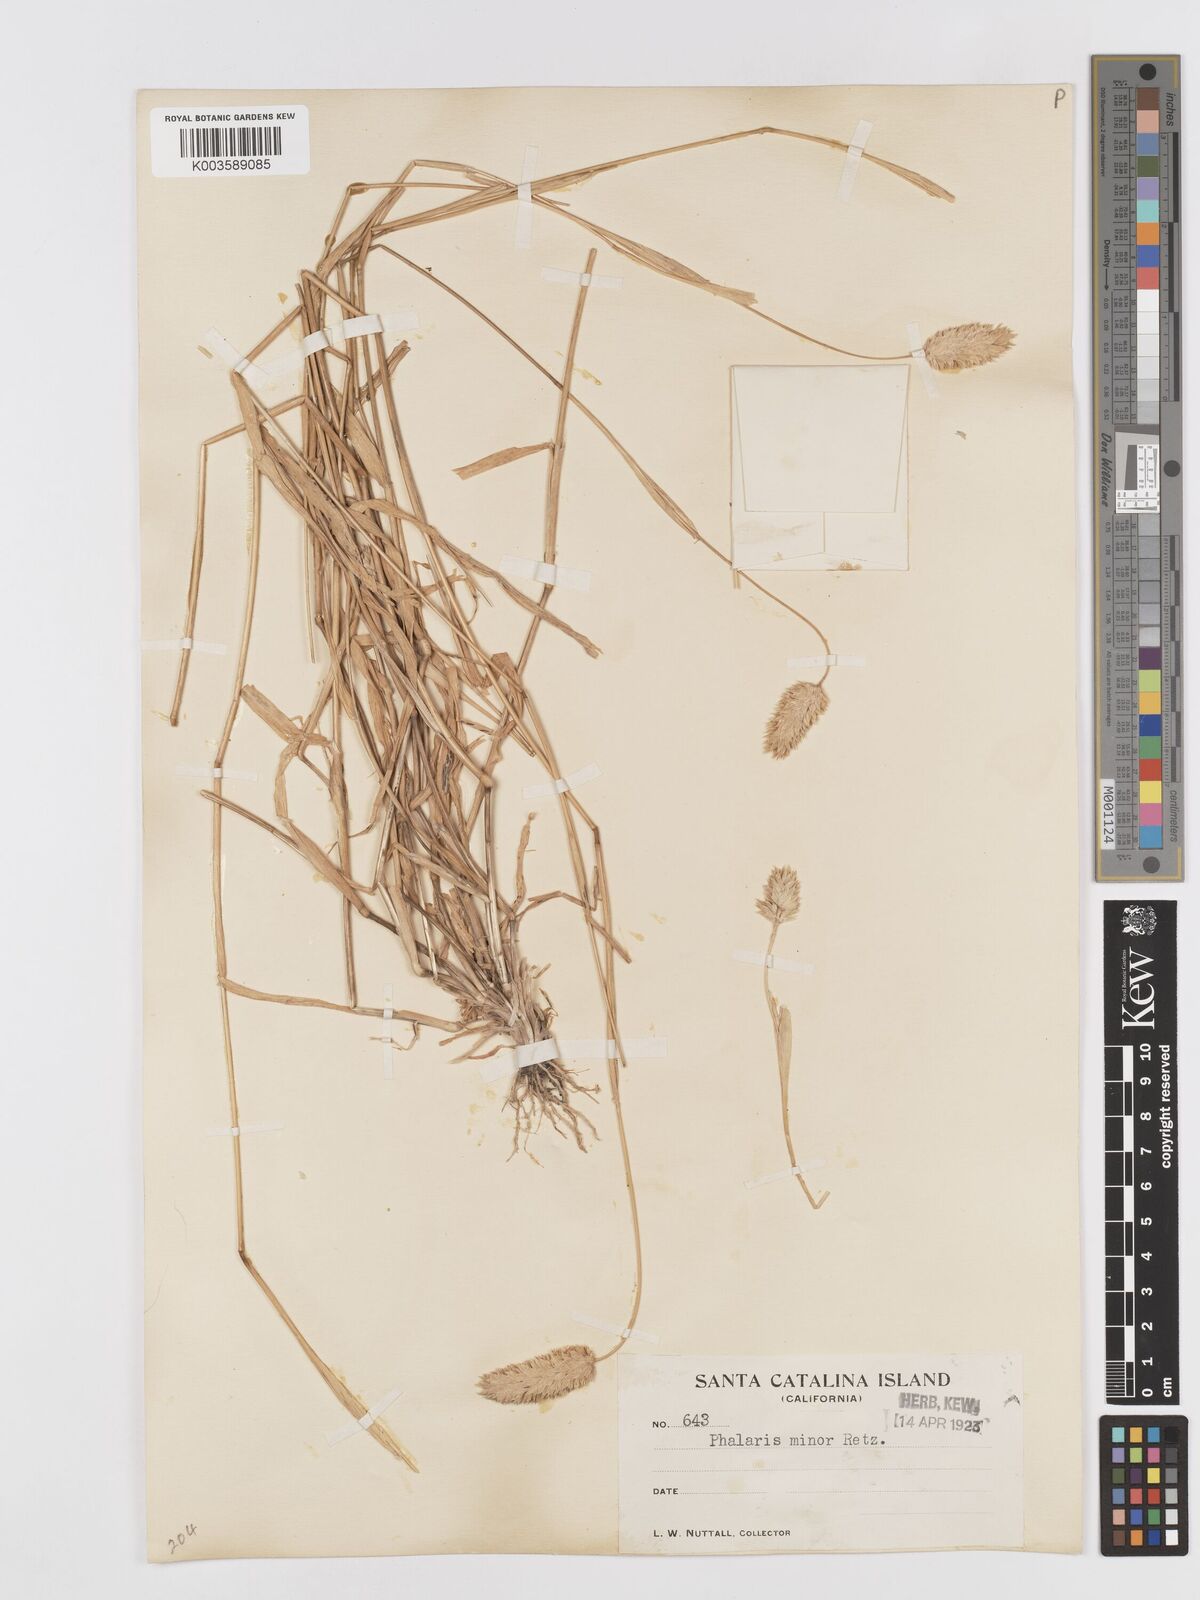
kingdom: Plantae
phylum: Tracheophyta
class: Liliopsida
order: Poales
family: Poaceae
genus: Phalaris
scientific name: Phalaris minor
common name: Littleseed canarygrass
